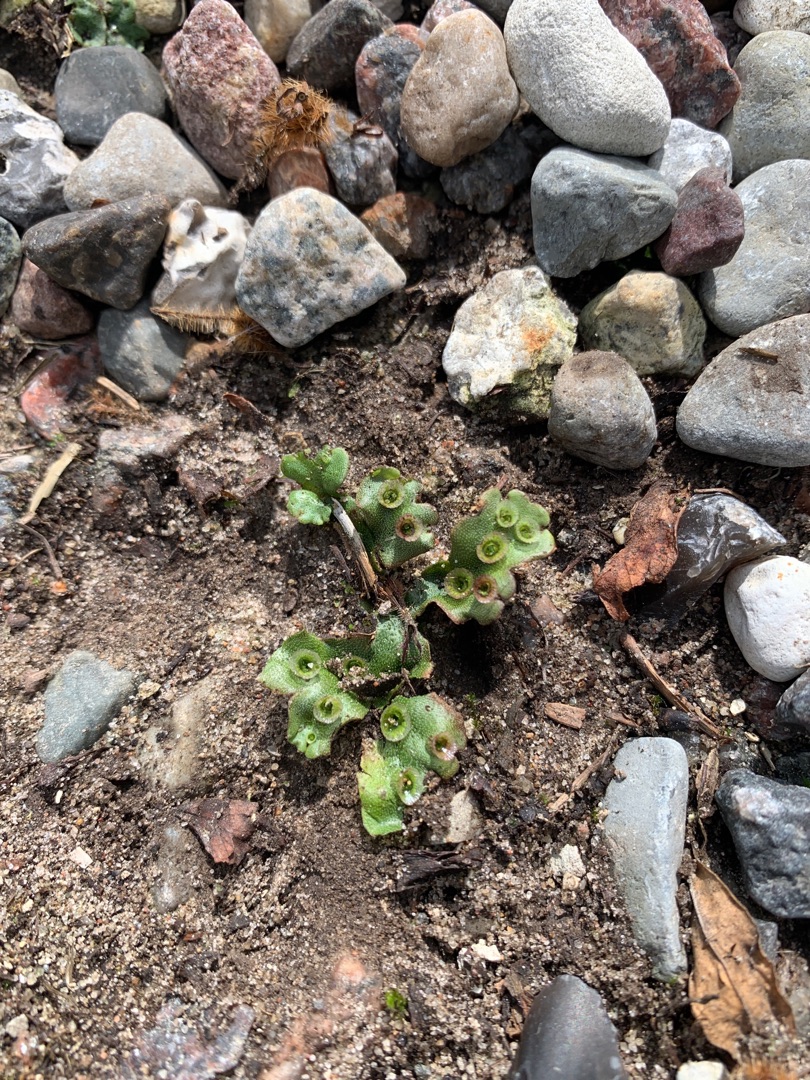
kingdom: Plantae
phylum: Marchantiophyta
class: Marchantiopsida
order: Marchantiales
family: Marchantiaceae
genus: Marchantia
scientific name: Marchantia polymorpha
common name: Almindelig lungemos (underart)
